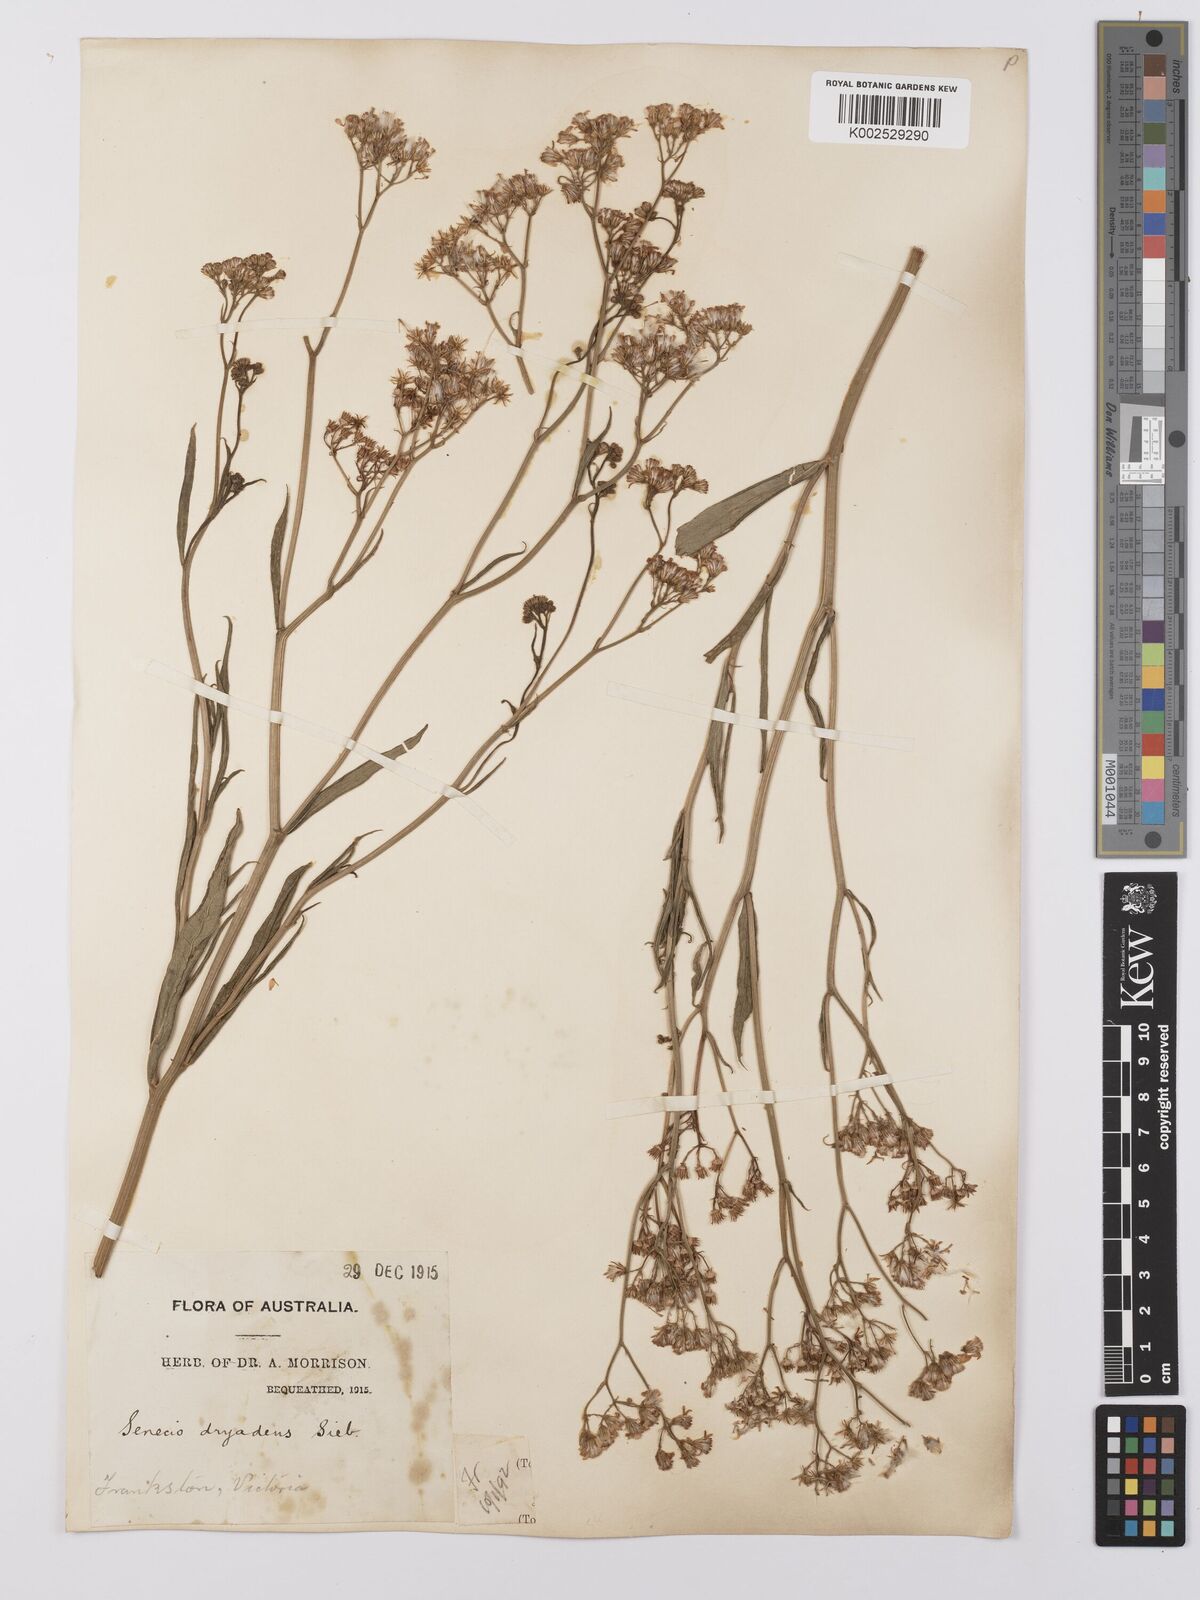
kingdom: Plantae
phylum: Tracheophyta
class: Magnoliopsida
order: Asterales
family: Asteraceae
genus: Senecio
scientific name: Senecio
